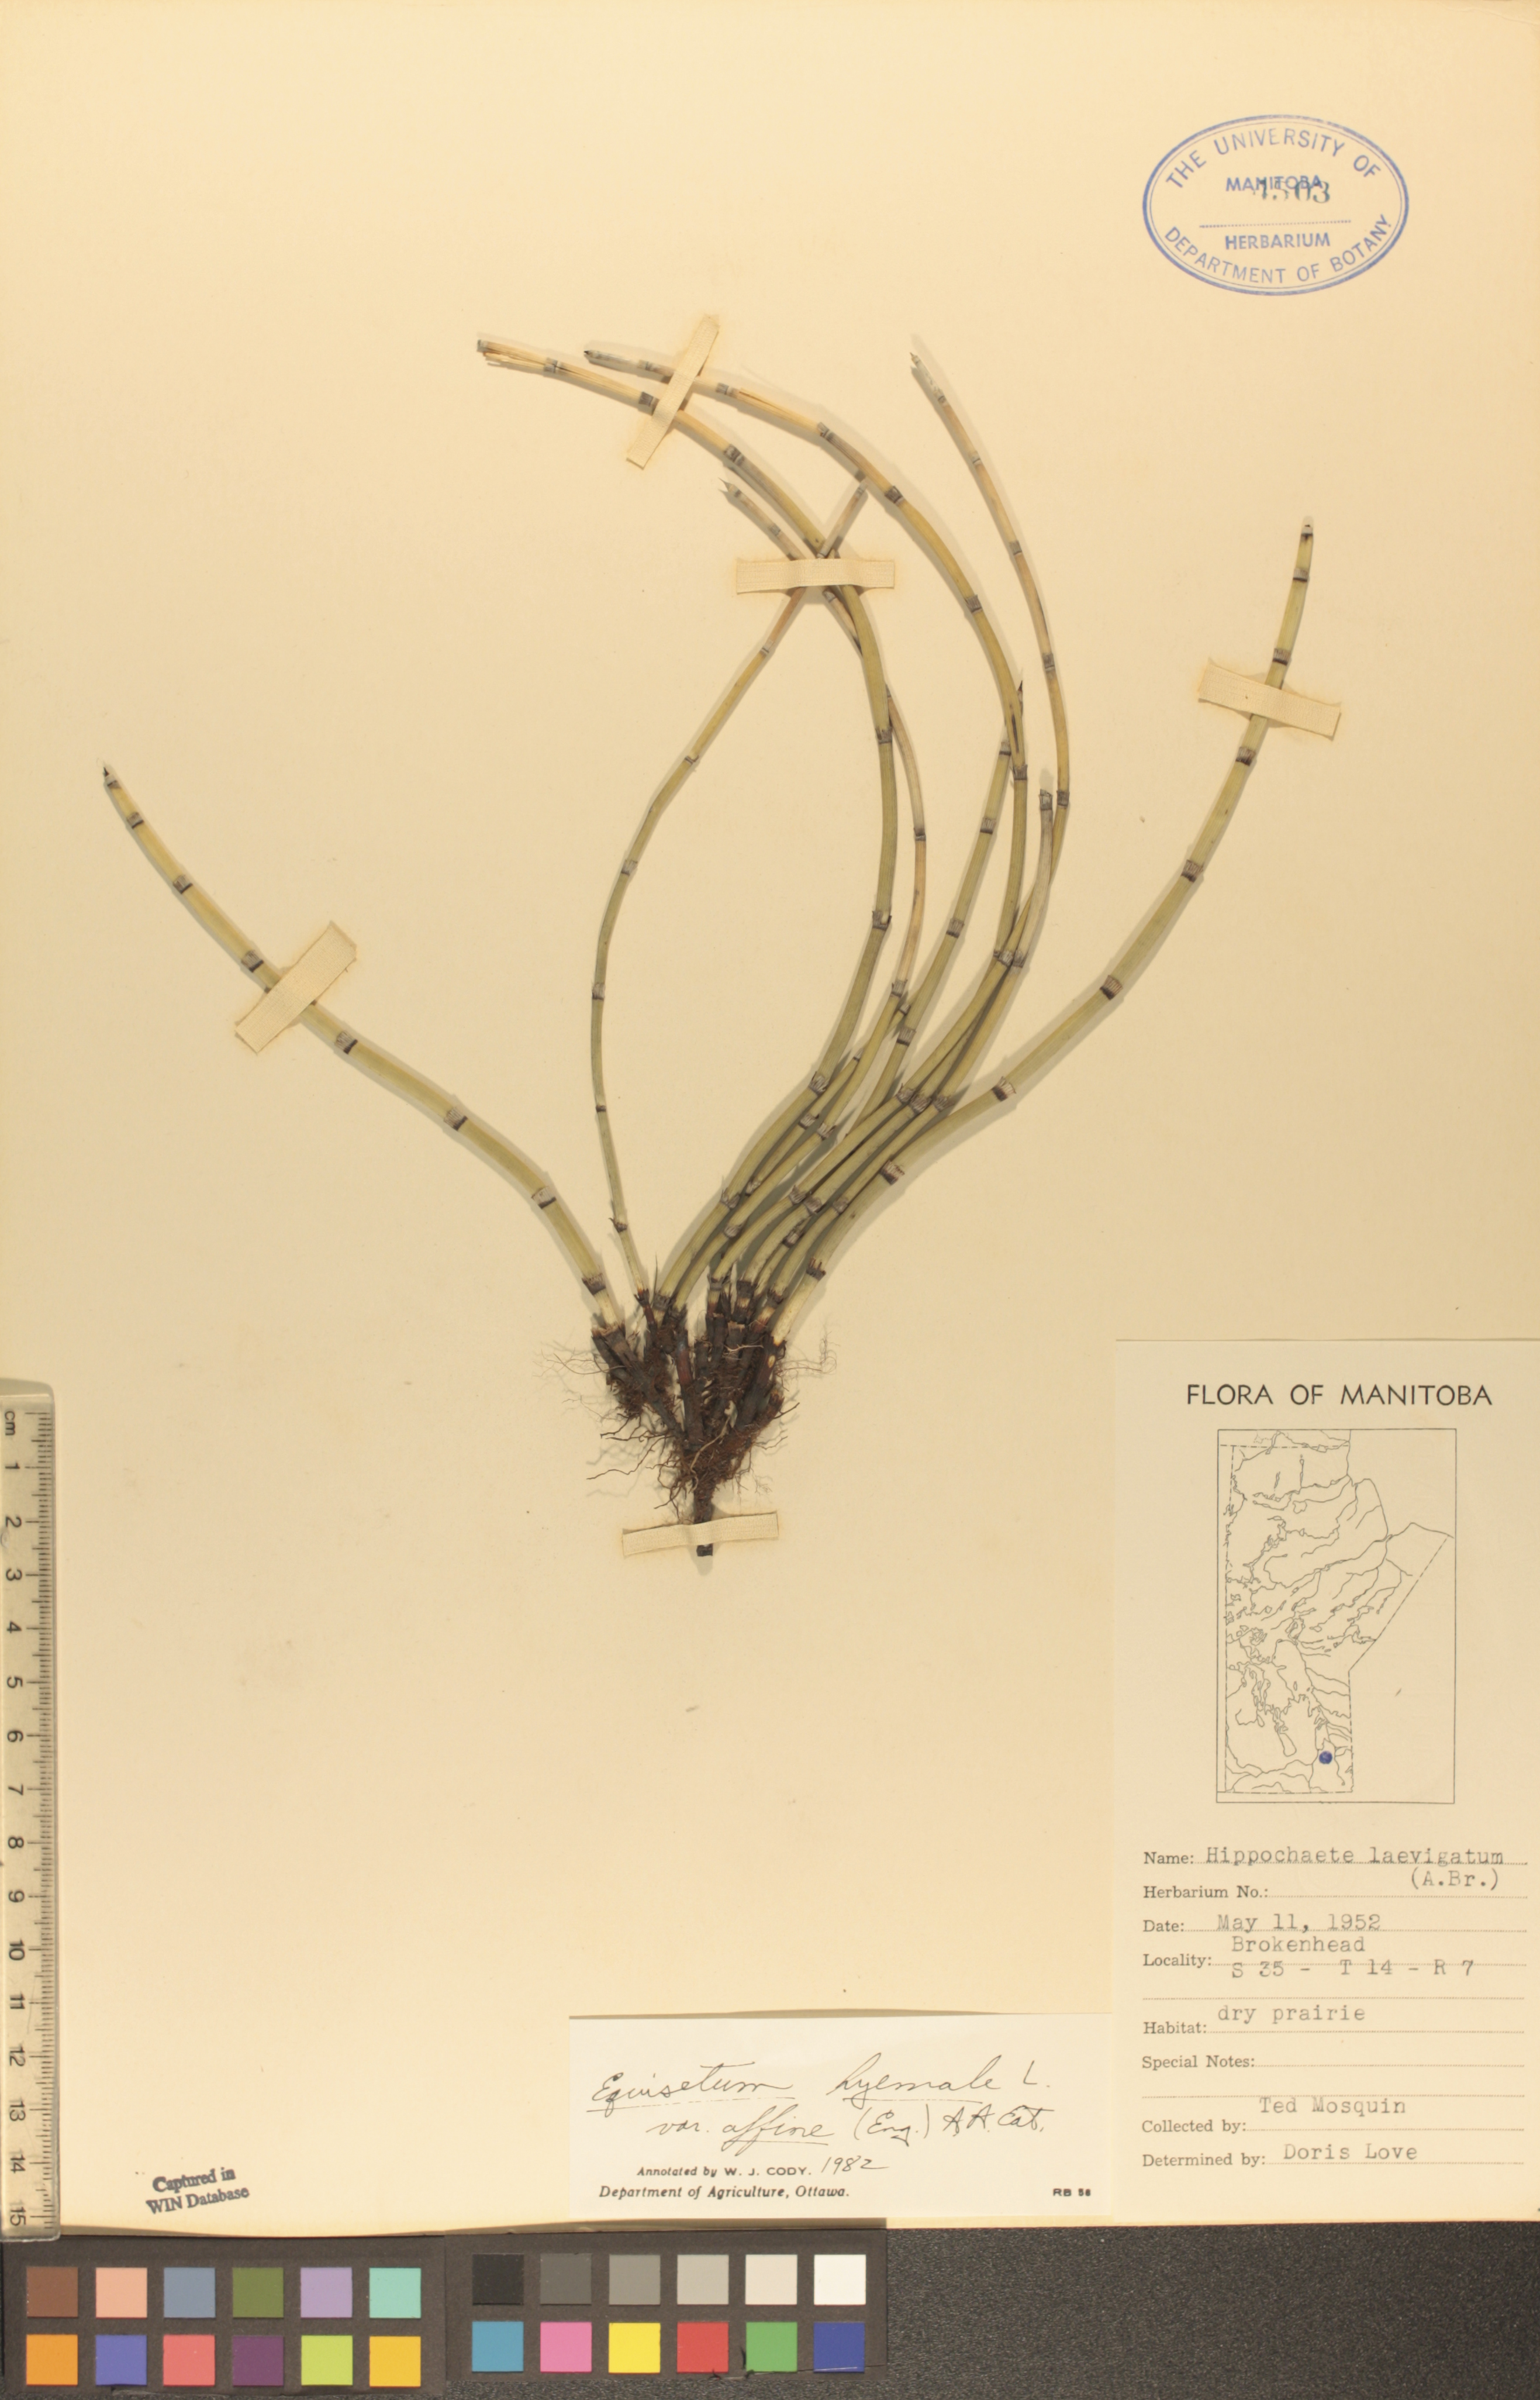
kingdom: Plantae
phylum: Tracheophyta
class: Polypodiopsida
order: Equisetales
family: Equisetaceae
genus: Equisetum
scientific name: Equisetum praealtum
